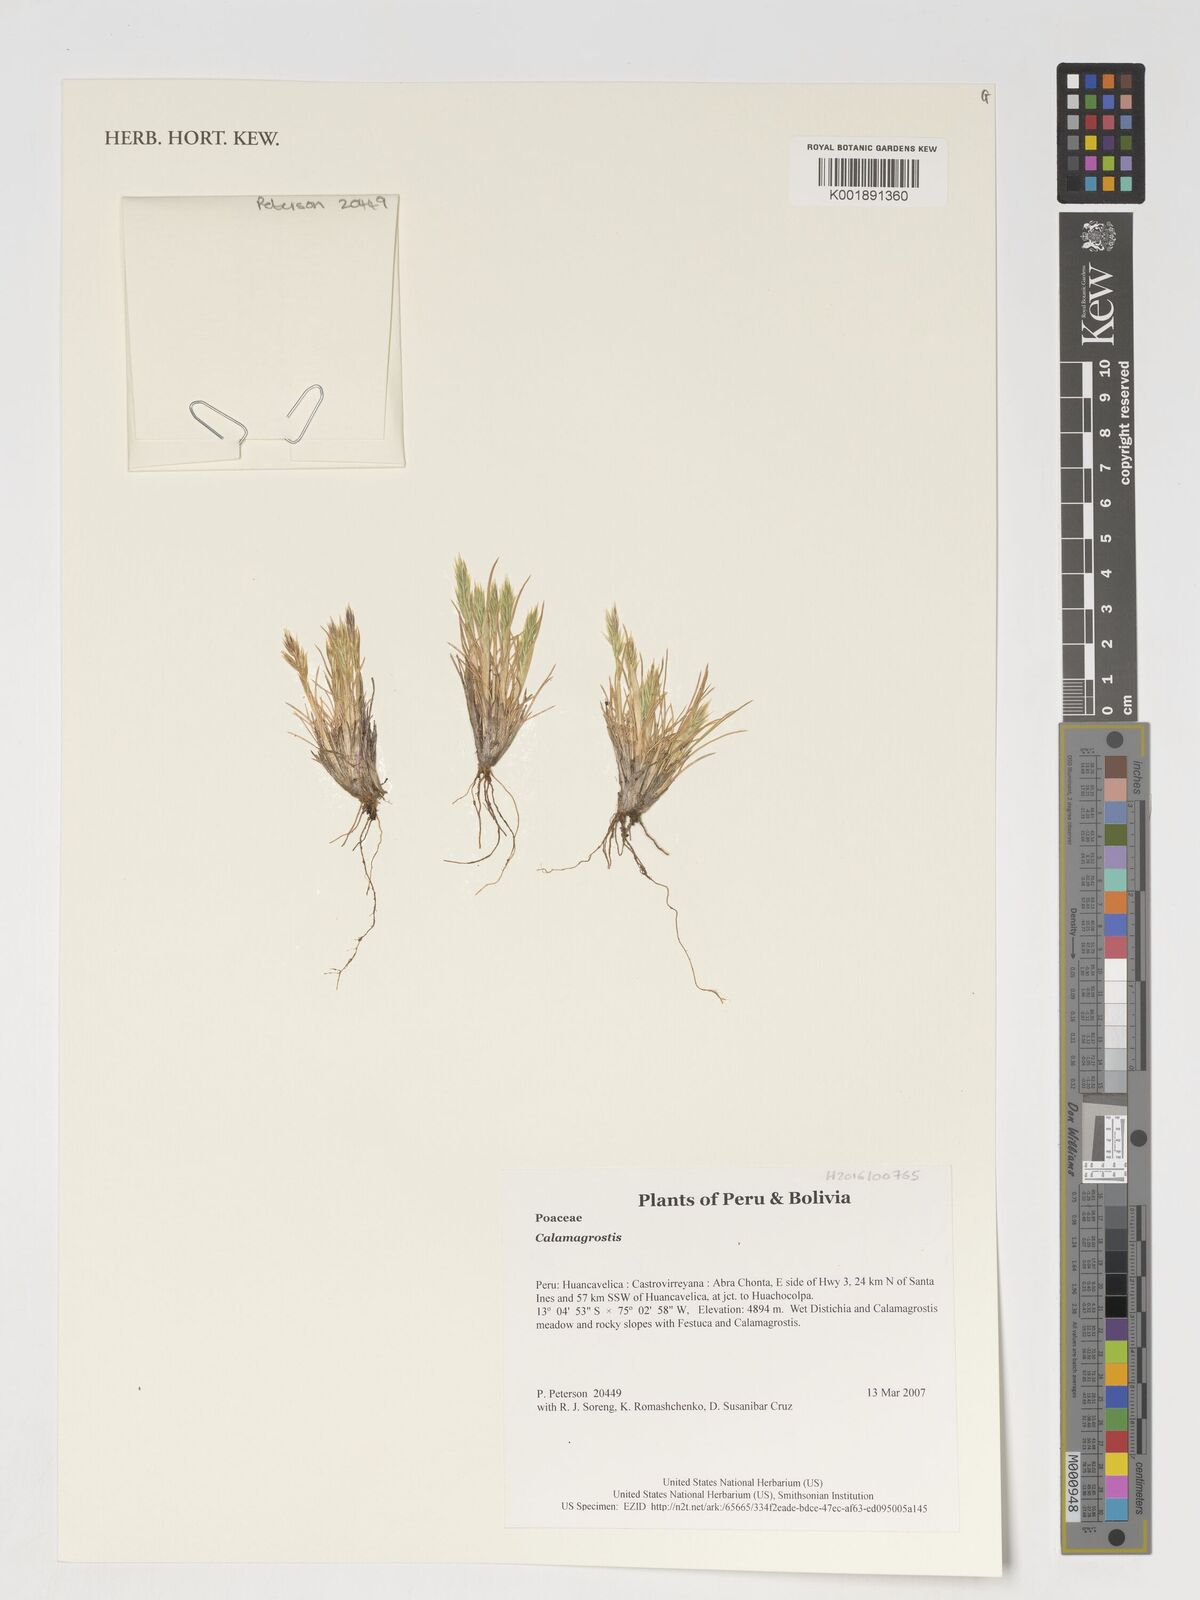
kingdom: Plantae
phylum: Tracheophyta
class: Liliopsida
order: Poales
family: Poaceae
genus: Calamagrostis
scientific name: Calamagrostis
